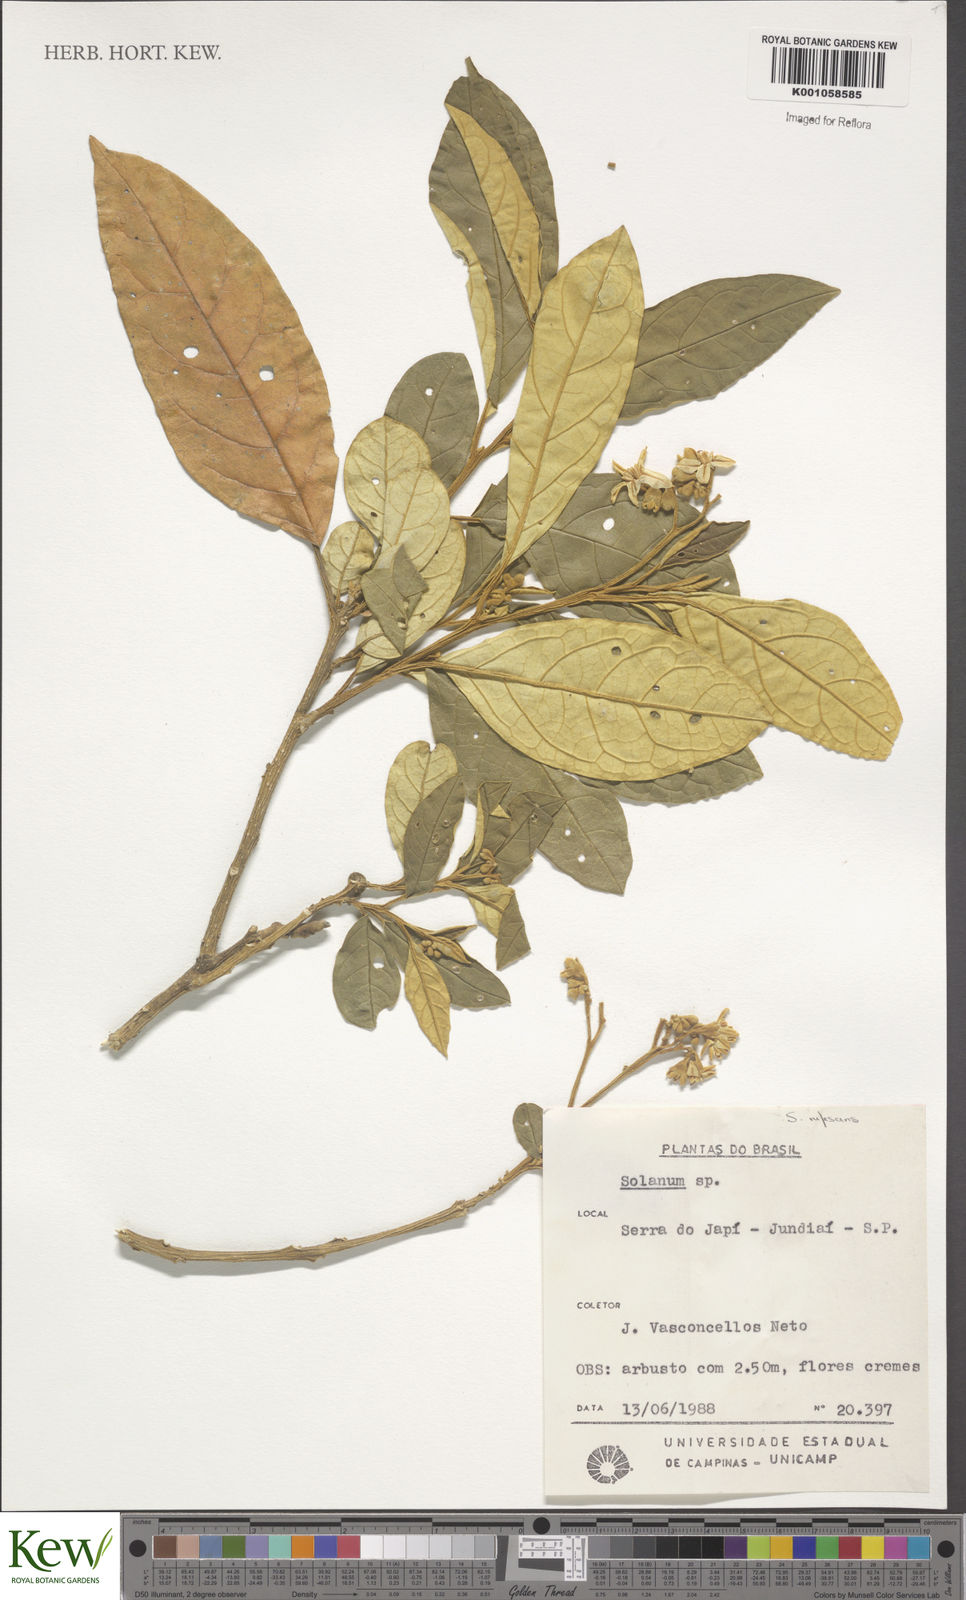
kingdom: Plantae
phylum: Tracheophyta
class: Magnoliopsida
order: Solanales
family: Solanaceae
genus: Solanum
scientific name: Solanum rufescens
